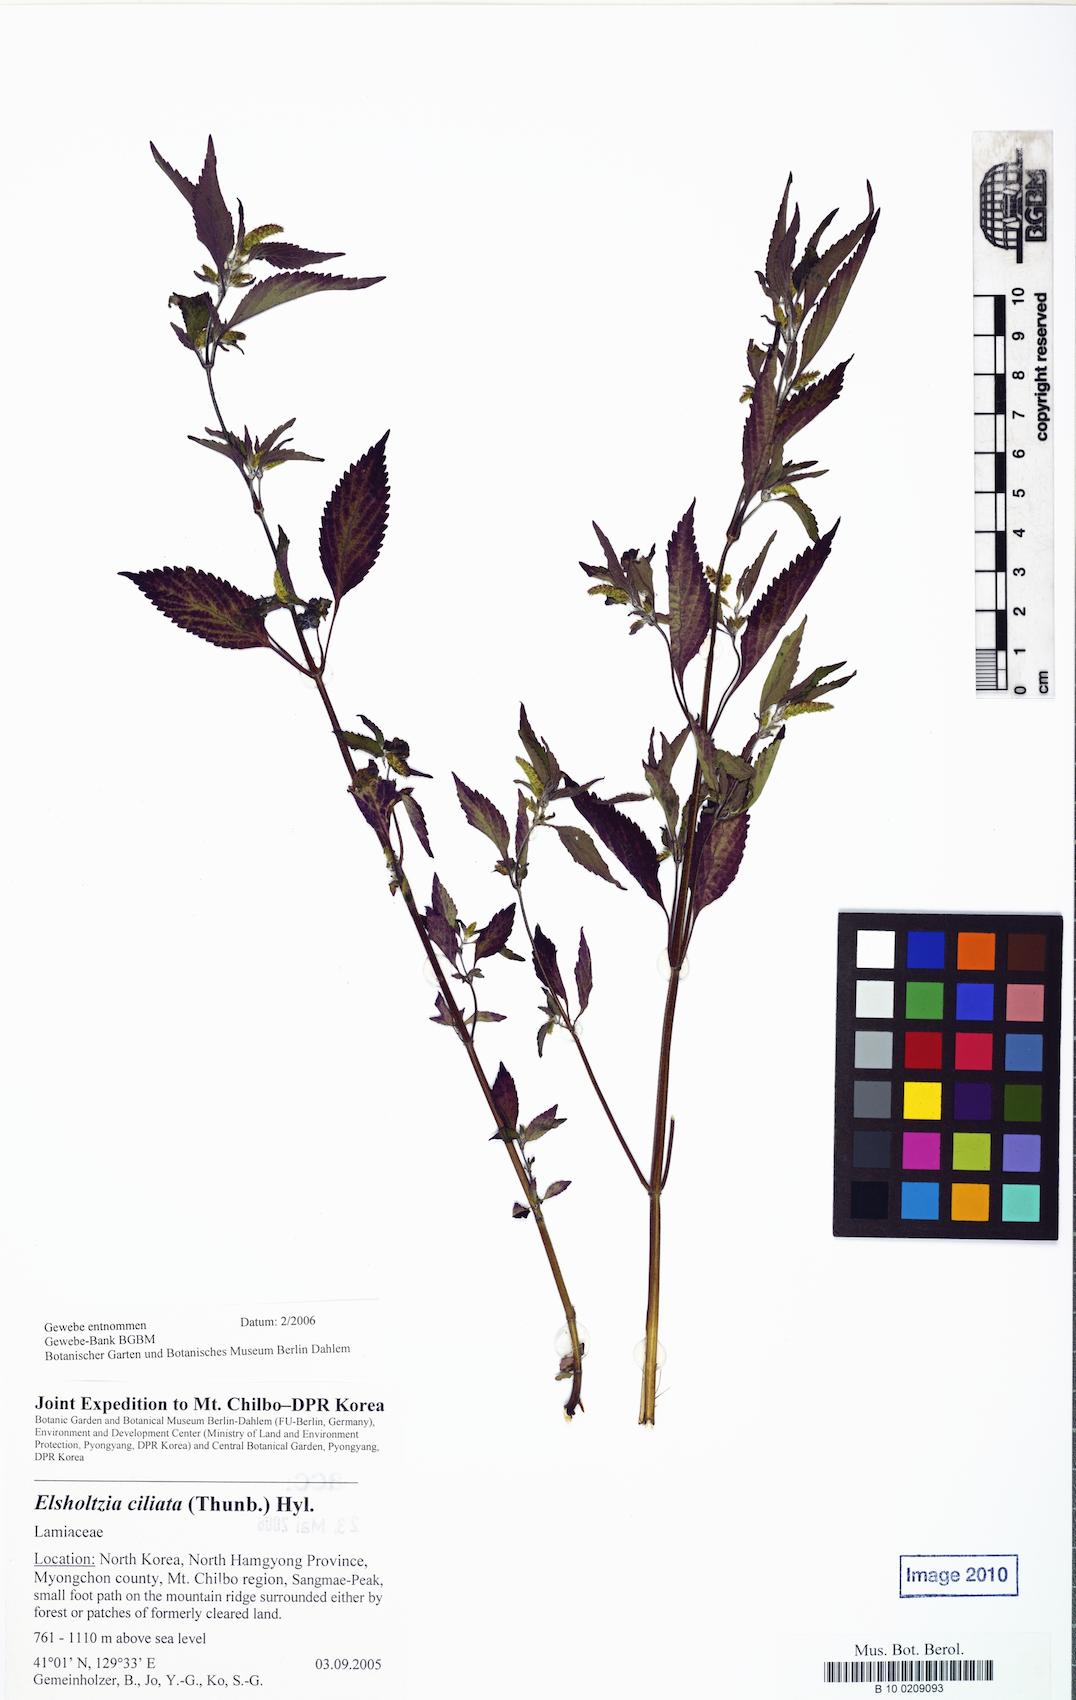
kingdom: Plantae
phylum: Tracheophyta
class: Magnoliopsida
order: Lamiales
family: Lamiaceae
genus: Elsholtzia
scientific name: Elsholtzia ciliata
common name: Ciliate elsholtzia
